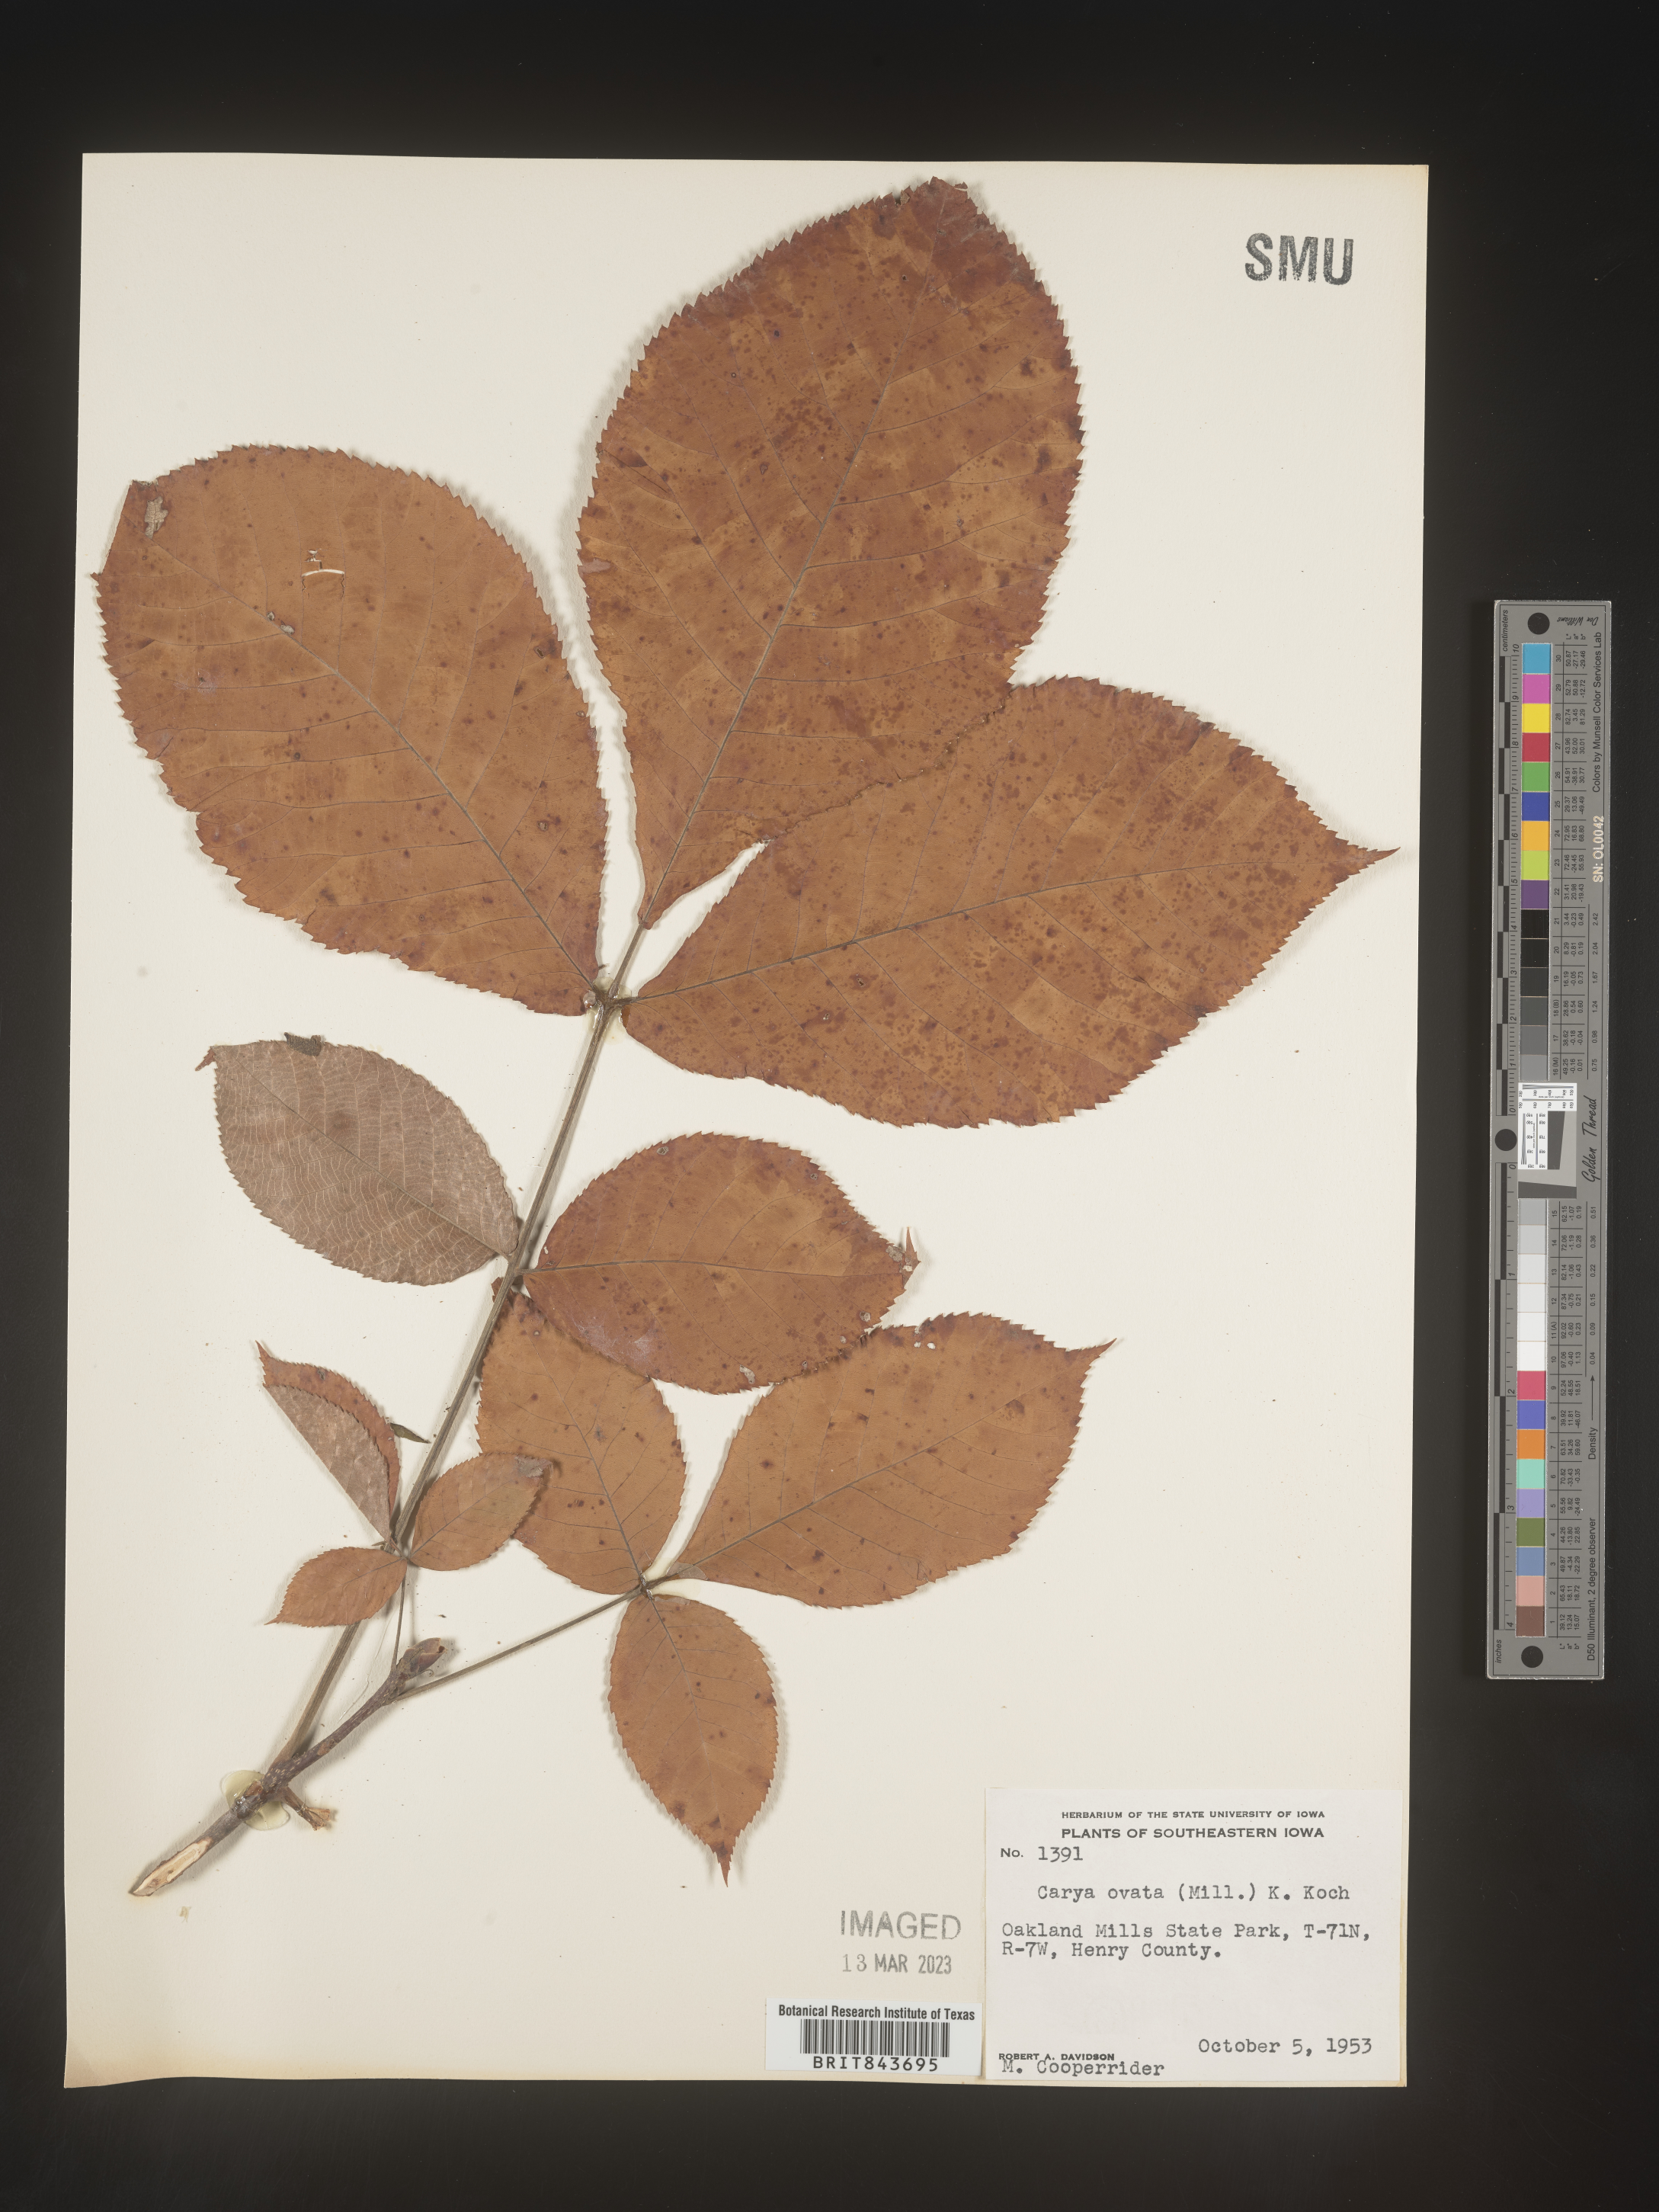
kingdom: Plantae
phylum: Tracheophyta
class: Magnoliopsida
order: Fagales
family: Juglandaceae
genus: Carya
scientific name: Carya ovata
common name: Shagbark hickory
